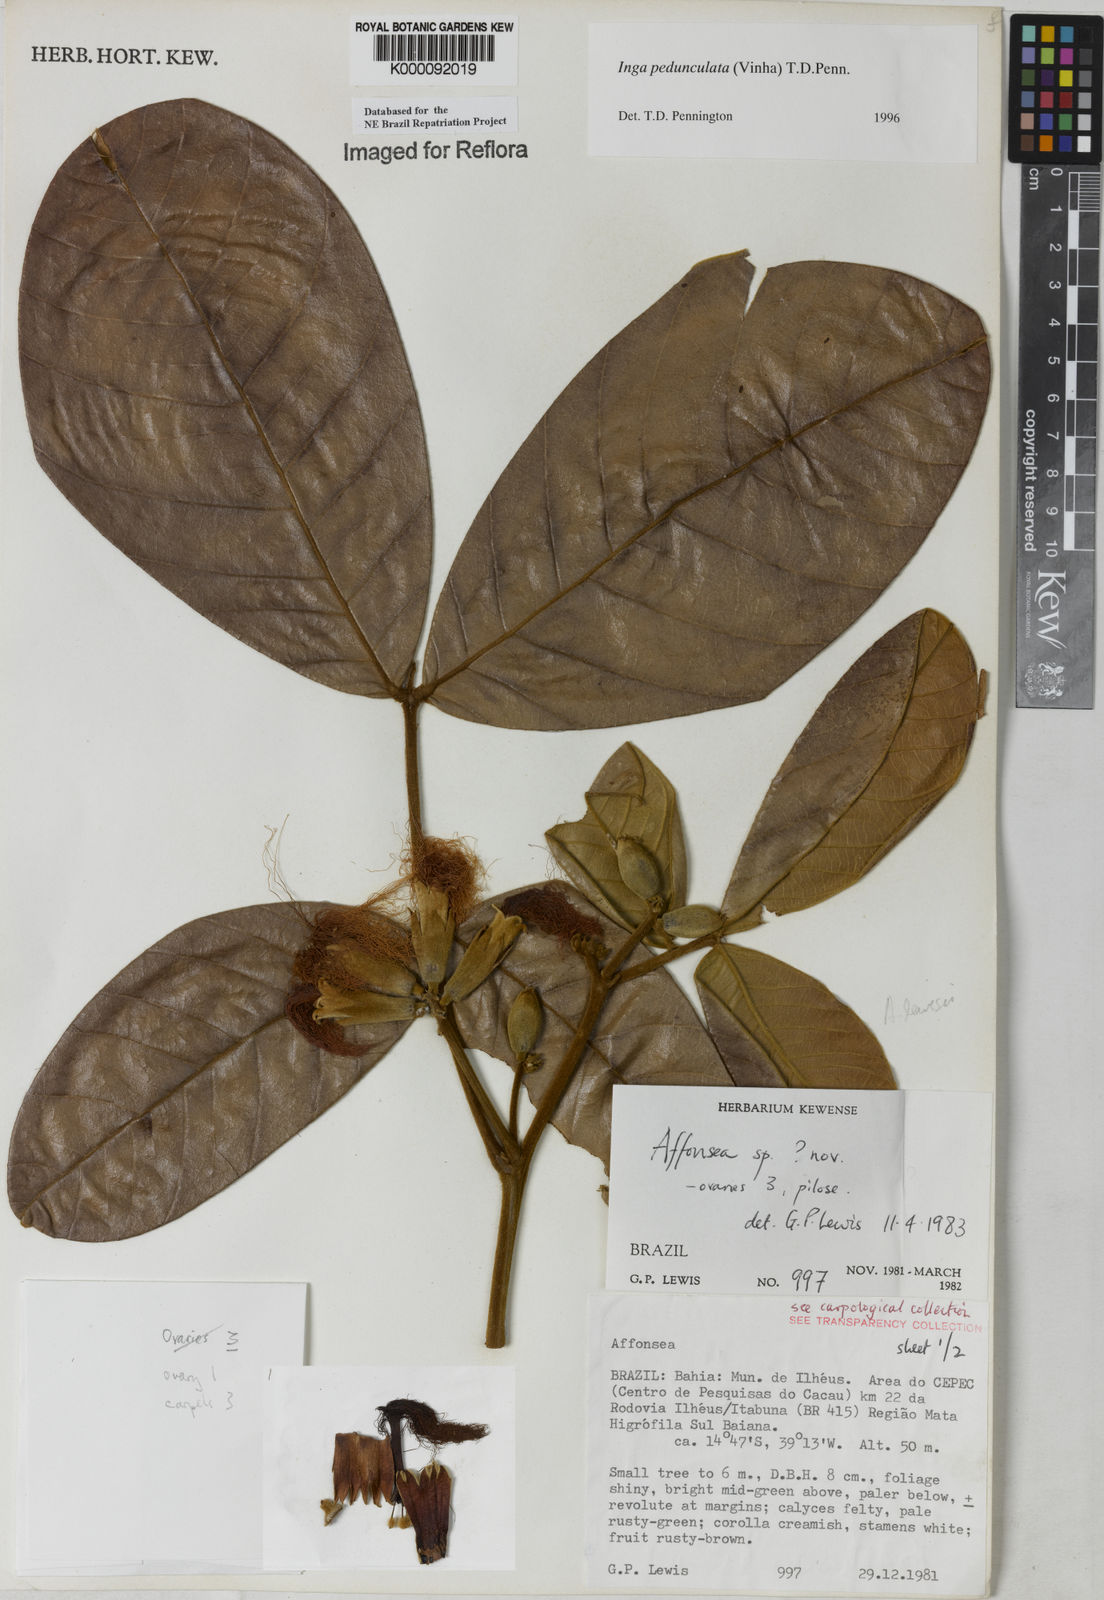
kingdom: Plantae
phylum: Tracheophyta
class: Magnoliopsida
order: Fabales
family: Fabaceae
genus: Inga
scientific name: Inga pedunculata
